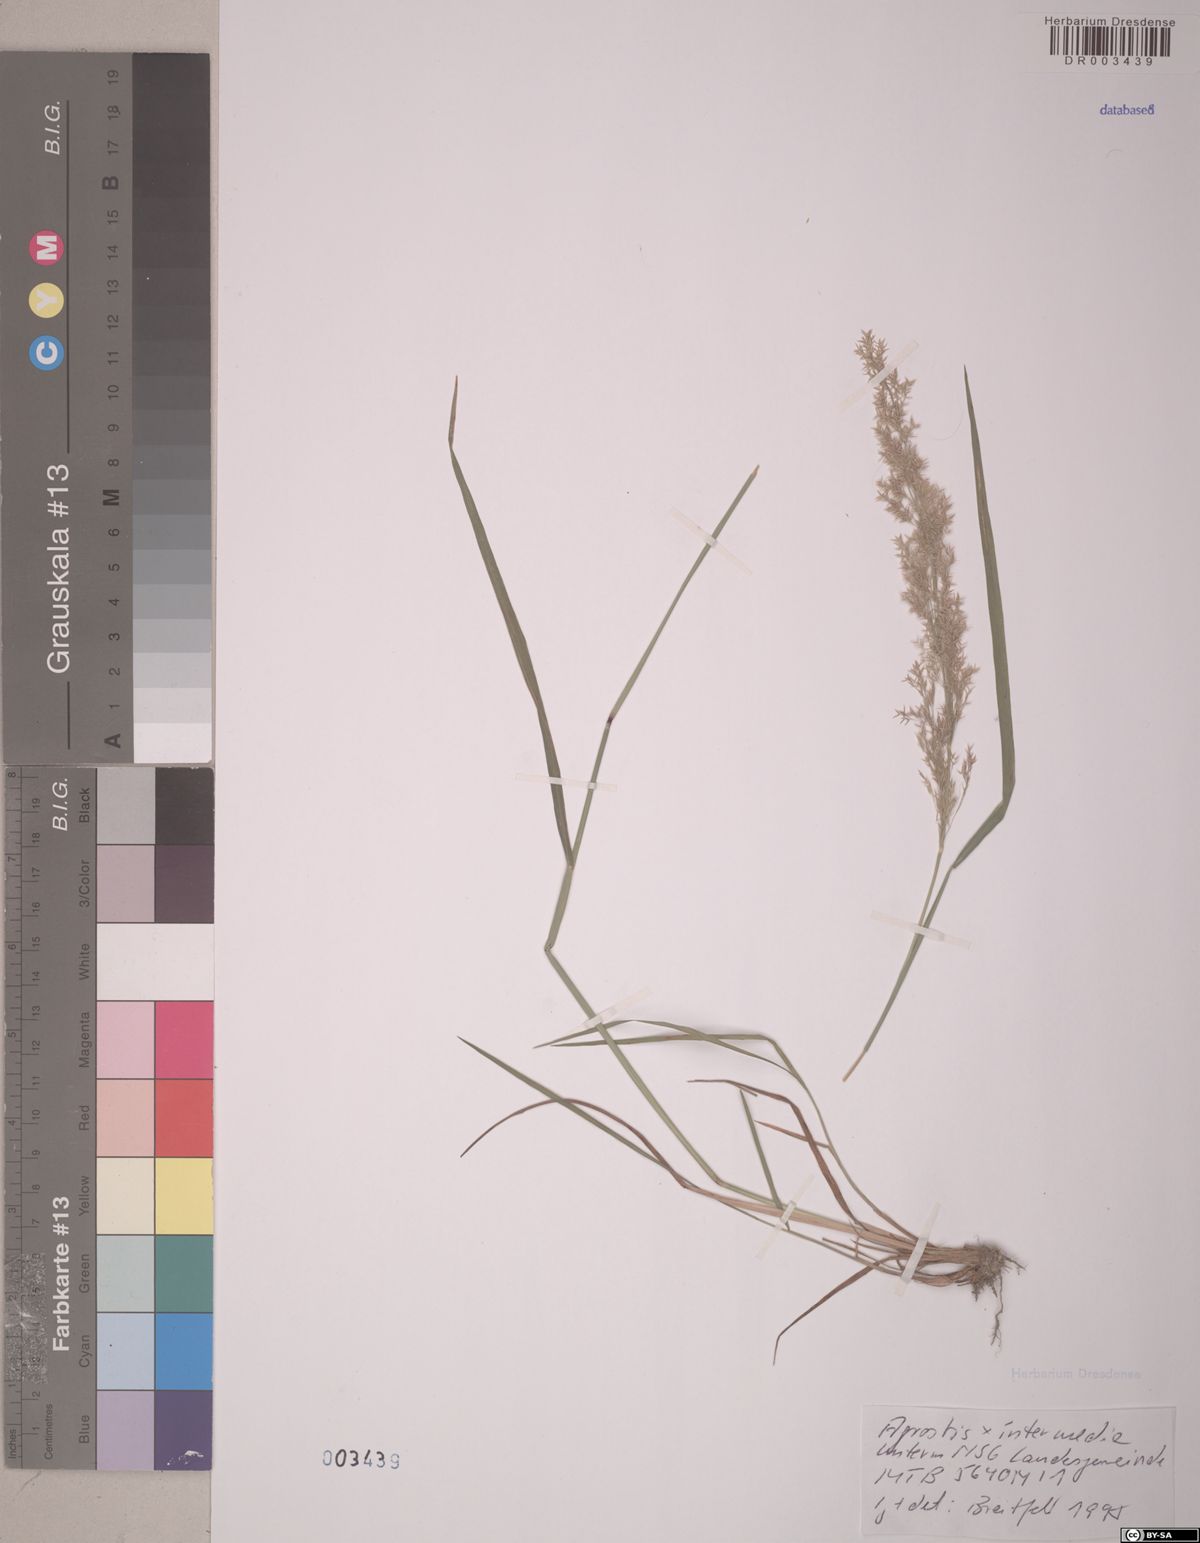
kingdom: Plantae
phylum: Tracheophyta
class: Liliopsida
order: Poales
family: Poaceae
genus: Agrostis
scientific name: Agrostis
